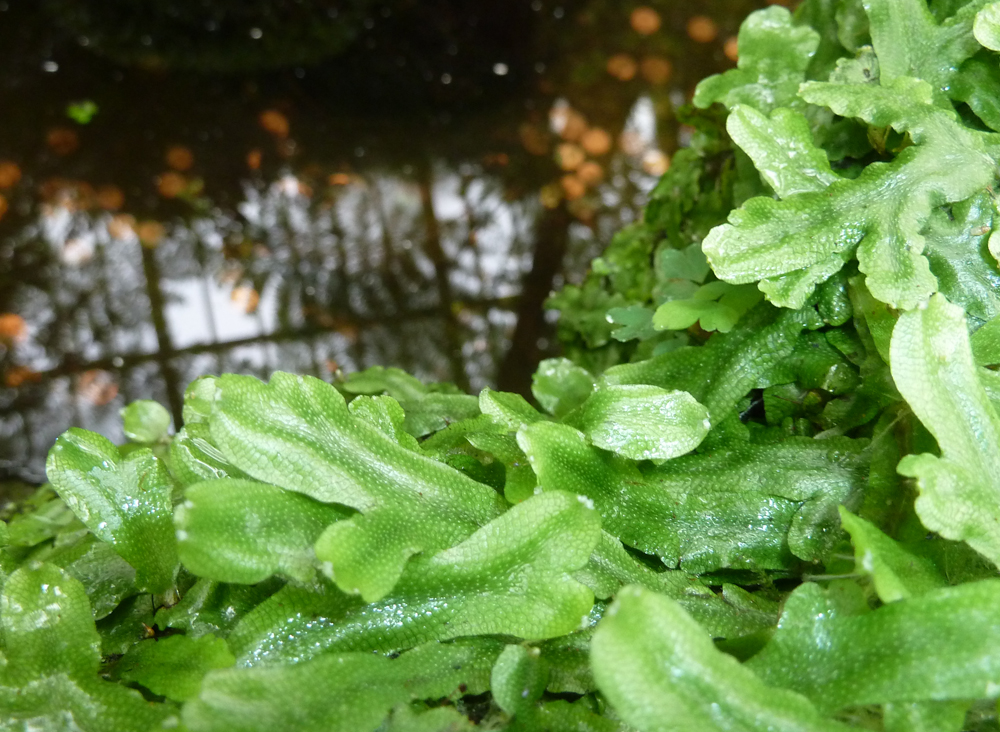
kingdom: Plantae
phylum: Marchantiophyta
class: Marchantiopsida
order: Marchantiales
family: Conocephalaceae
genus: Conocephalum
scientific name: Conocephalum conicum
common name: Great scented liverwort
